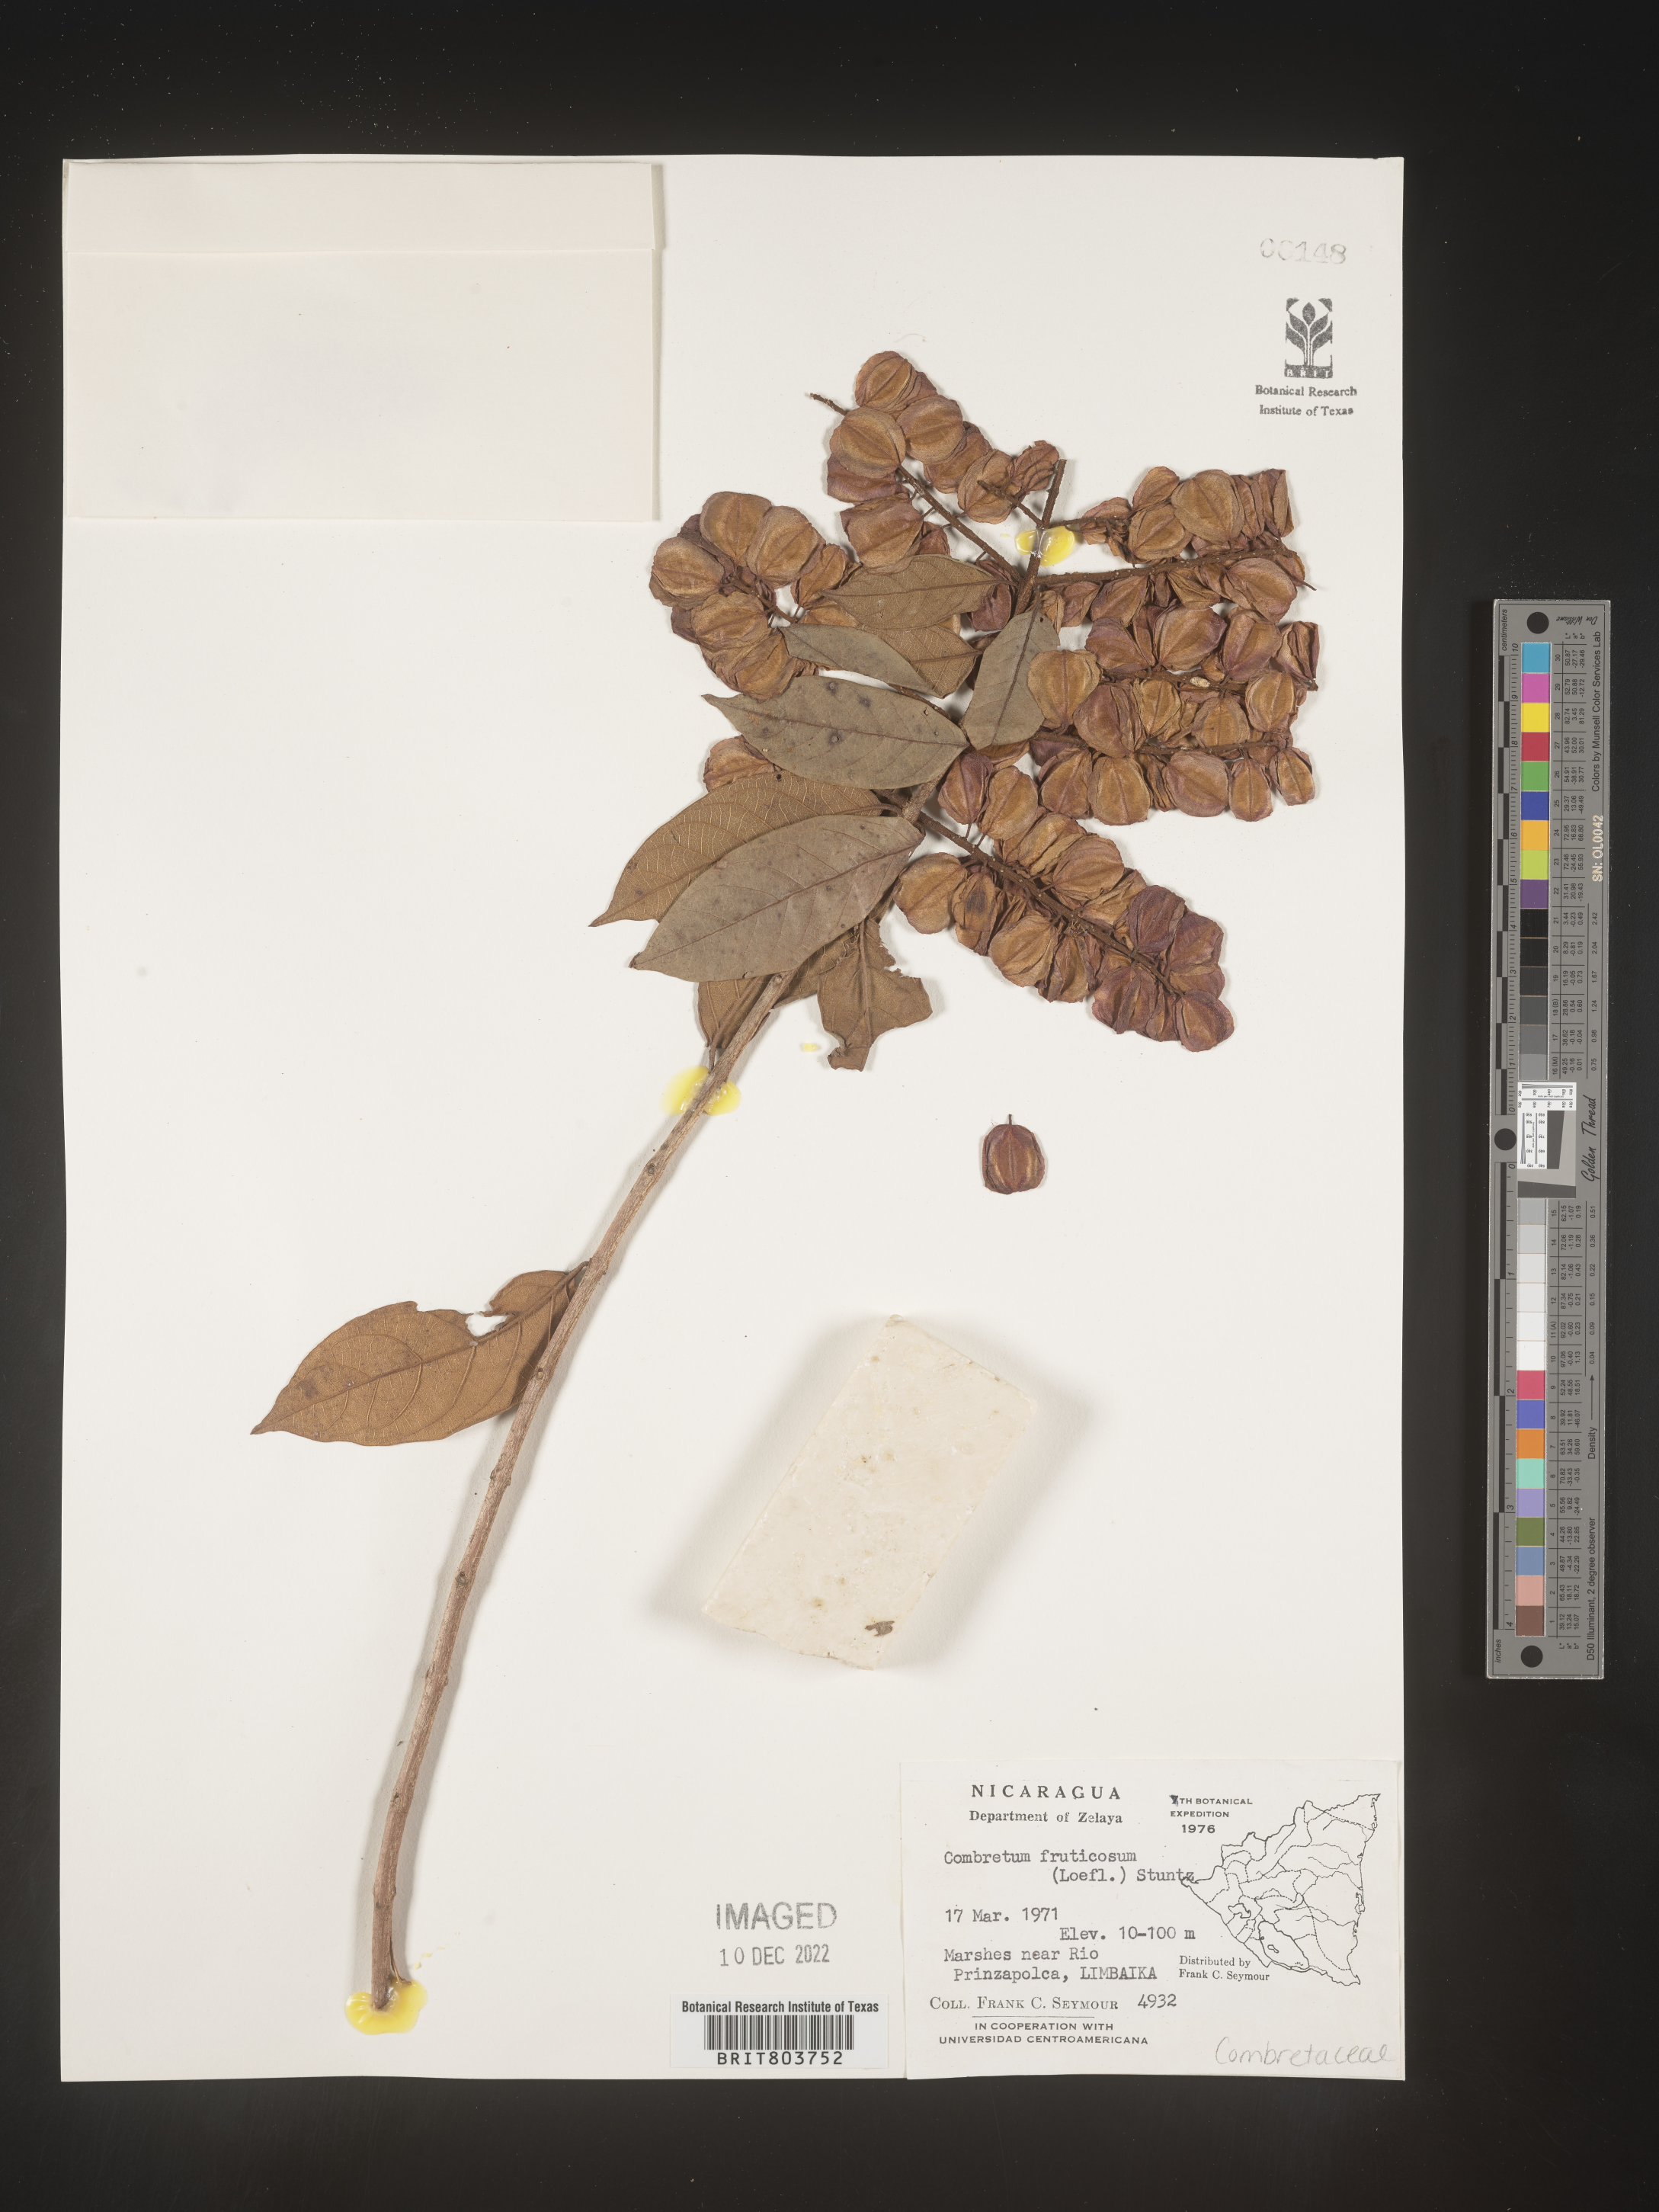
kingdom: Plantae
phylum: Tracheophyta
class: Magnoliopsida
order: Myrtales
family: Combretaceae
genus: Combretum
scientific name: Combretum
